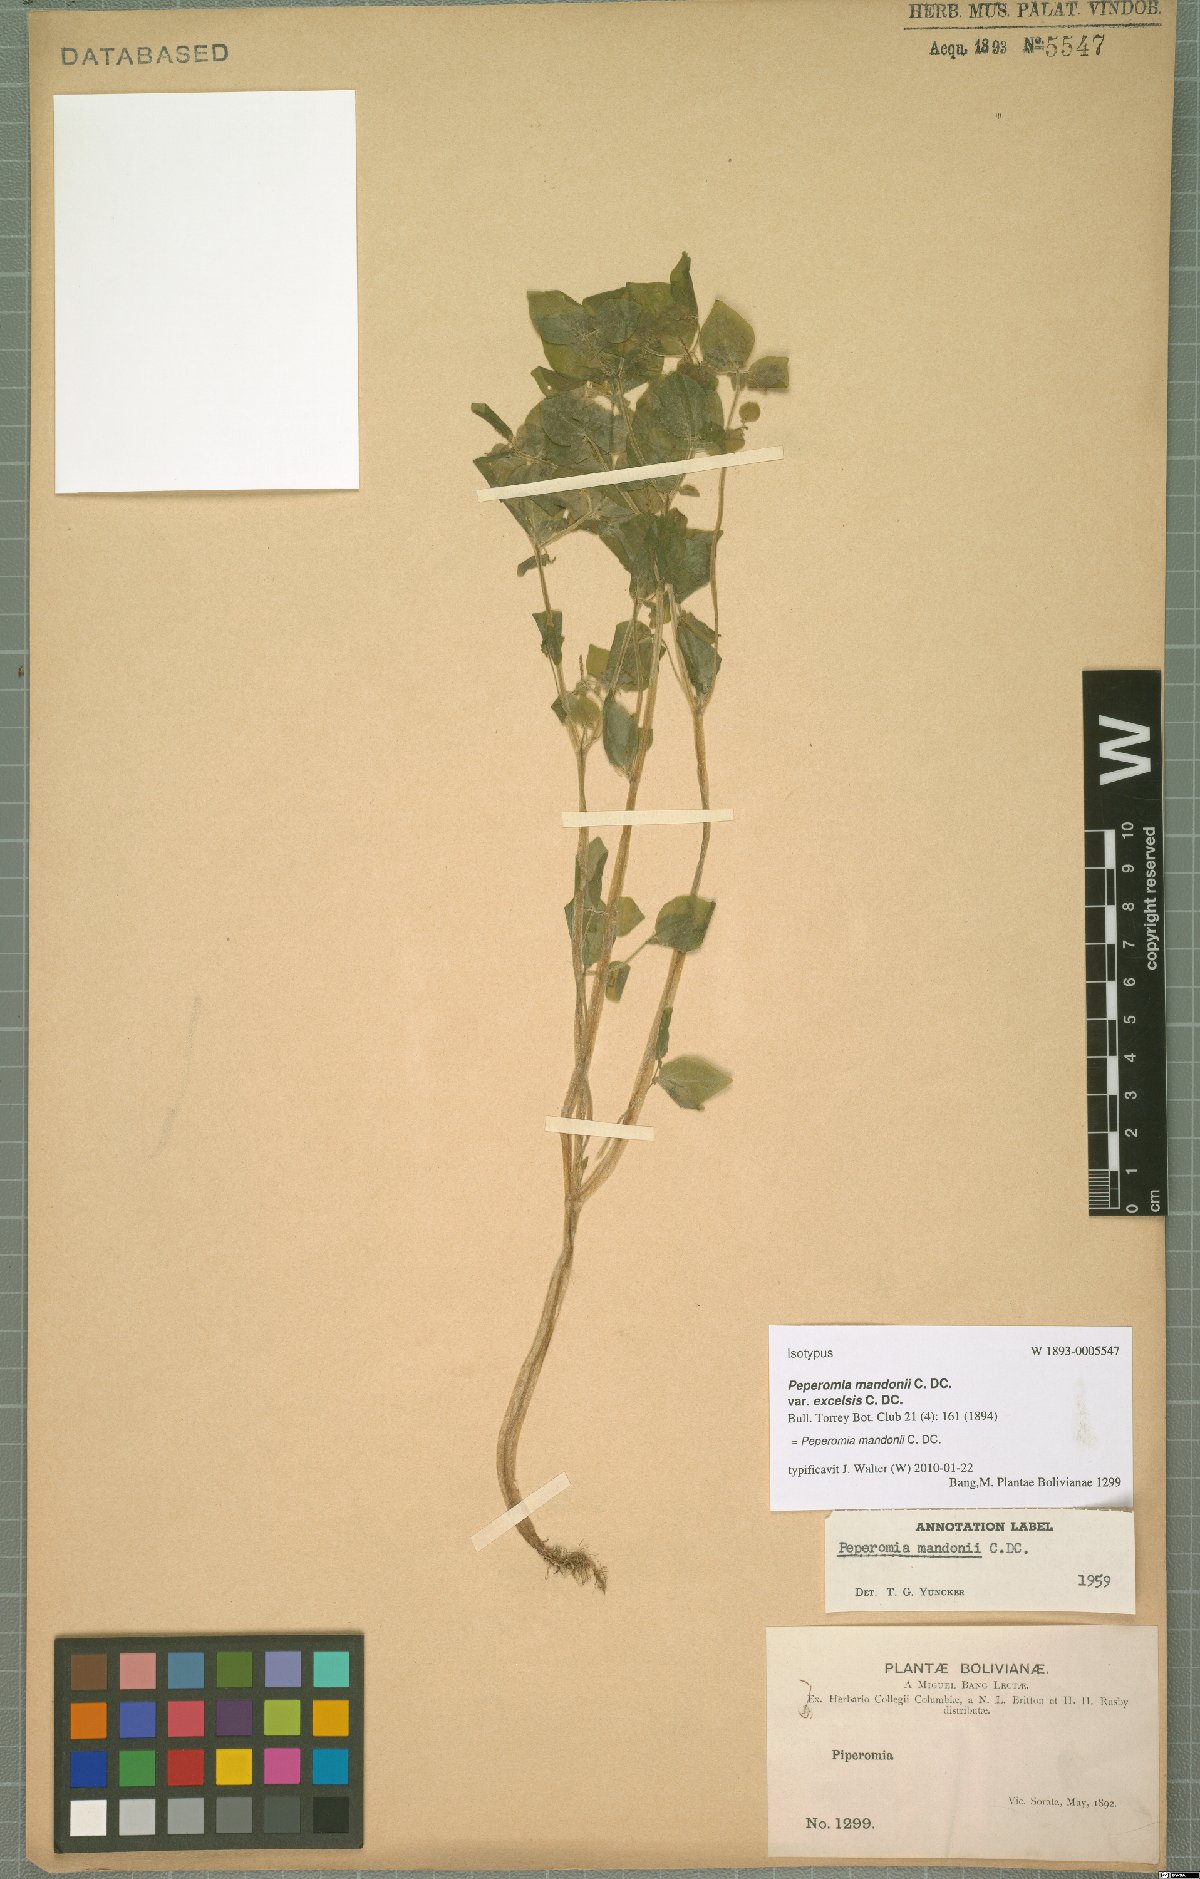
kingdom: Plantae
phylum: Tracheophyta
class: Magnoliopsida
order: Piperales
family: Piperaceae
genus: Peperomia
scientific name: Peperomia mandonii
